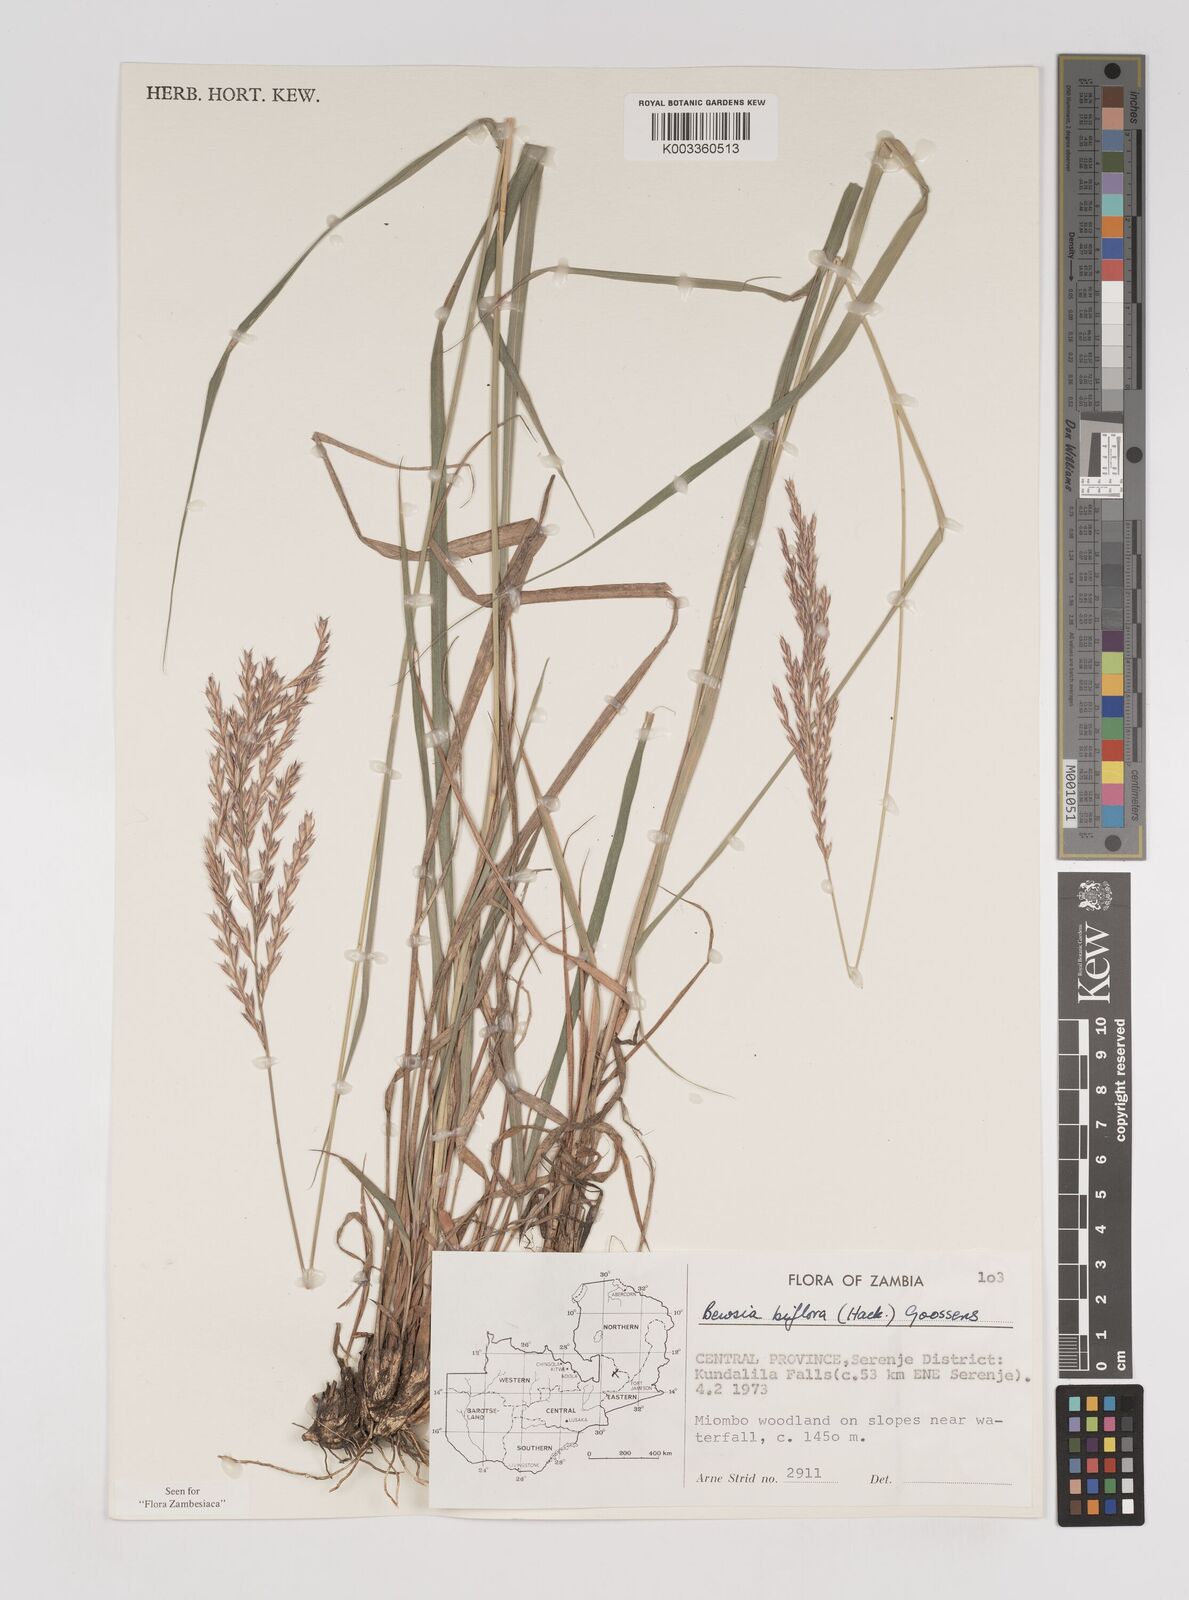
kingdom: Plantae
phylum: Tracheophyta
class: Liliopsida
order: Poales
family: Poaceae
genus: Bewsia
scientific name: Bewsia biflora
